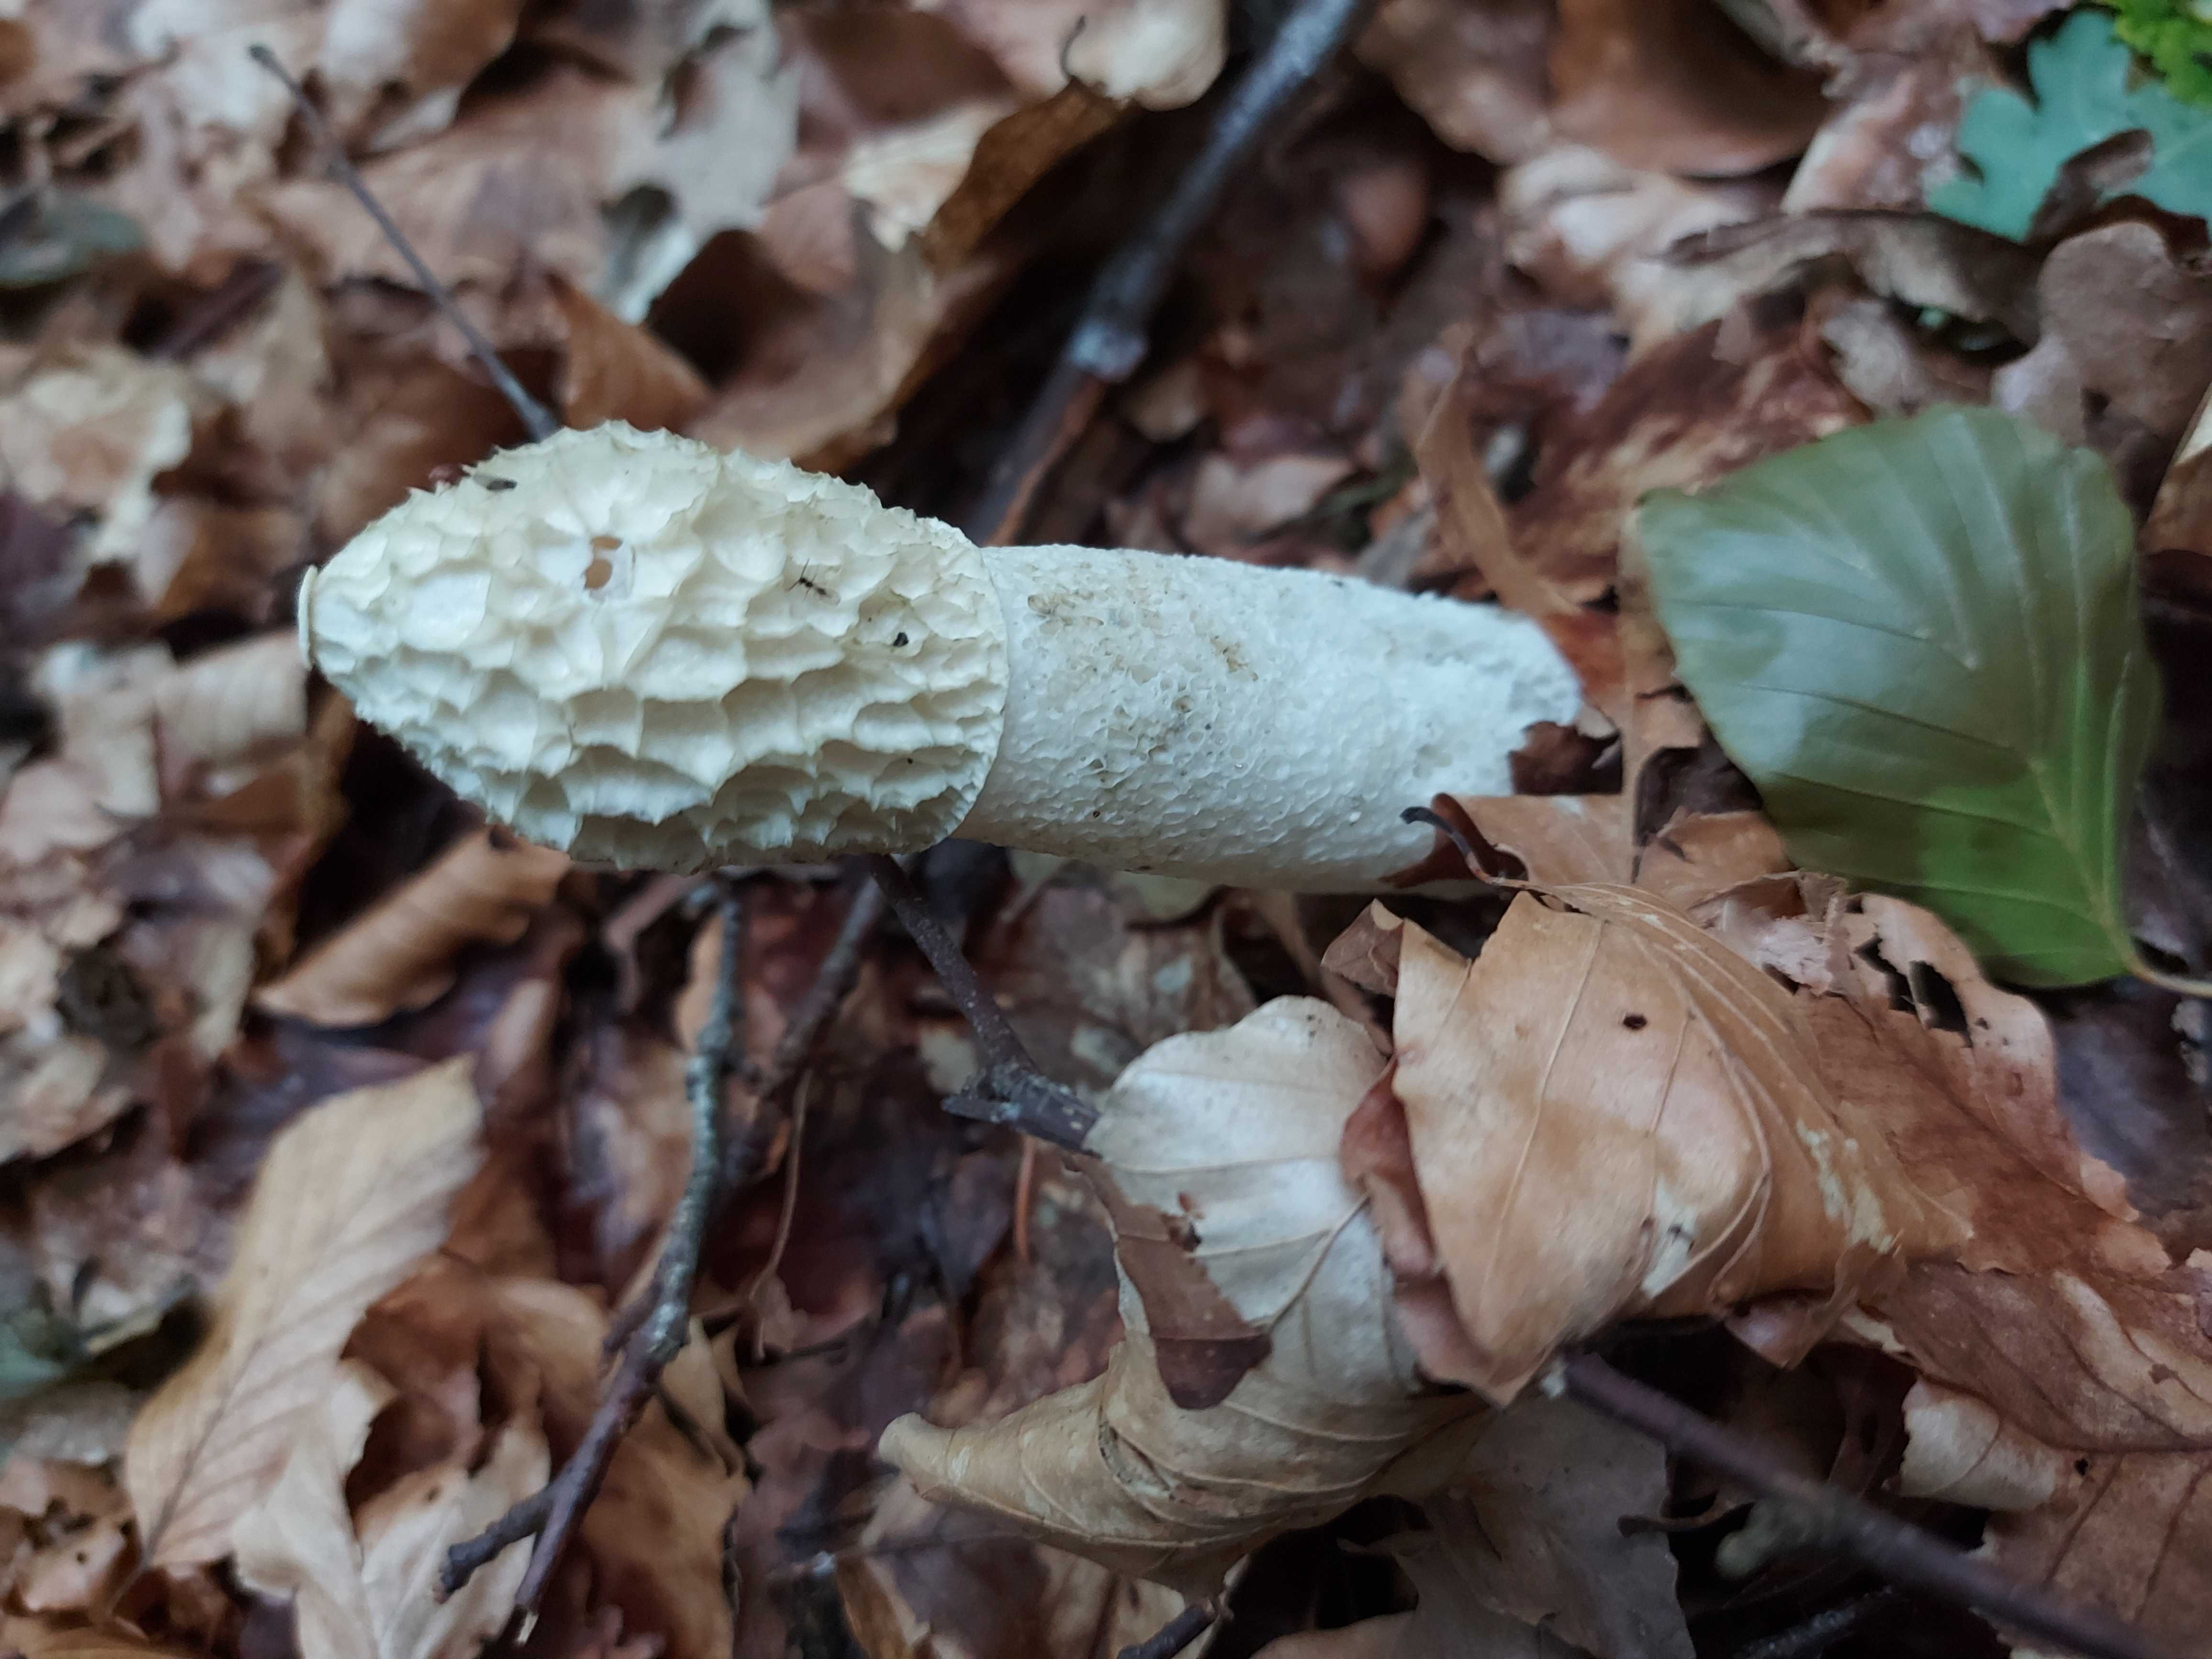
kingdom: Fungi
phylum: Basidiomycota
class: Agaricomycetes
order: Phallales
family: Phallaceae
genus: Phallus
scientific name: Phallus impudicus
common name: almindelig stinksvamp
